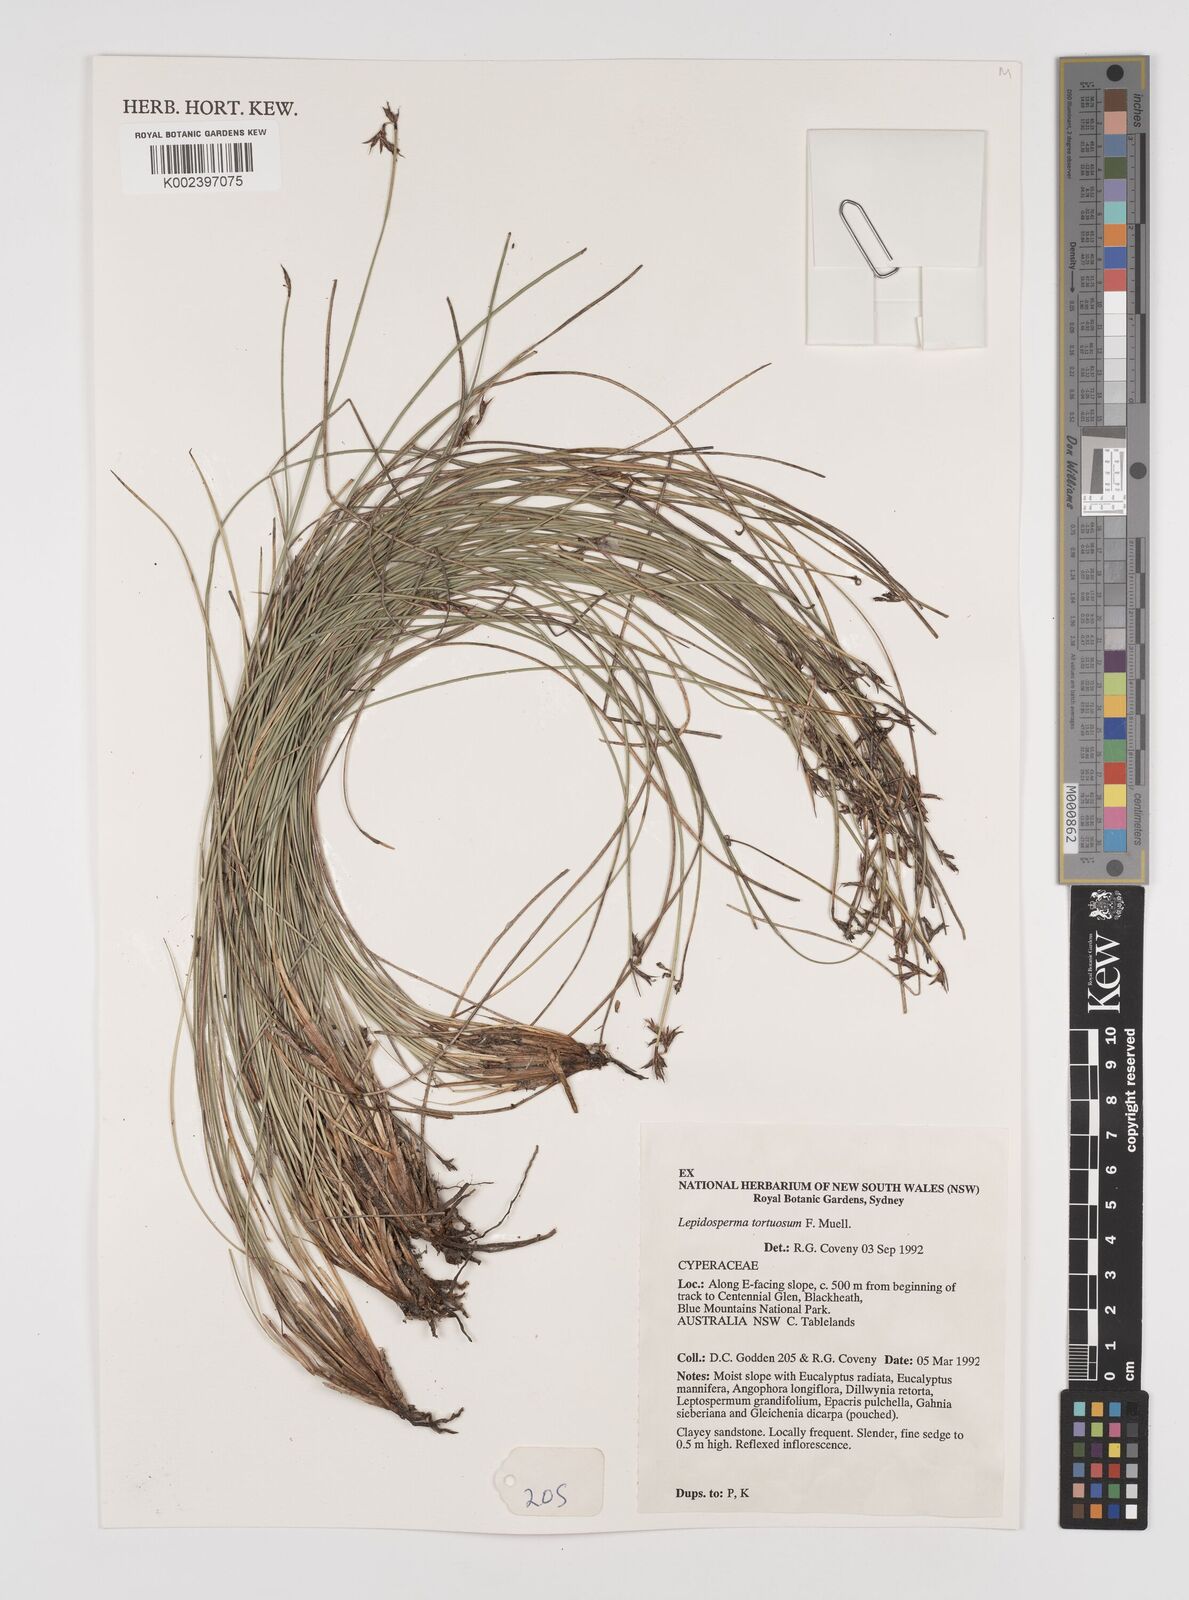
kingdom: Plantae
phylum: Tracheophyta
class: Liliopsida
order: Poales
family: Cyperaceae
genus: Lepidosperma
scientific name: Lepidosperma tortuosum
